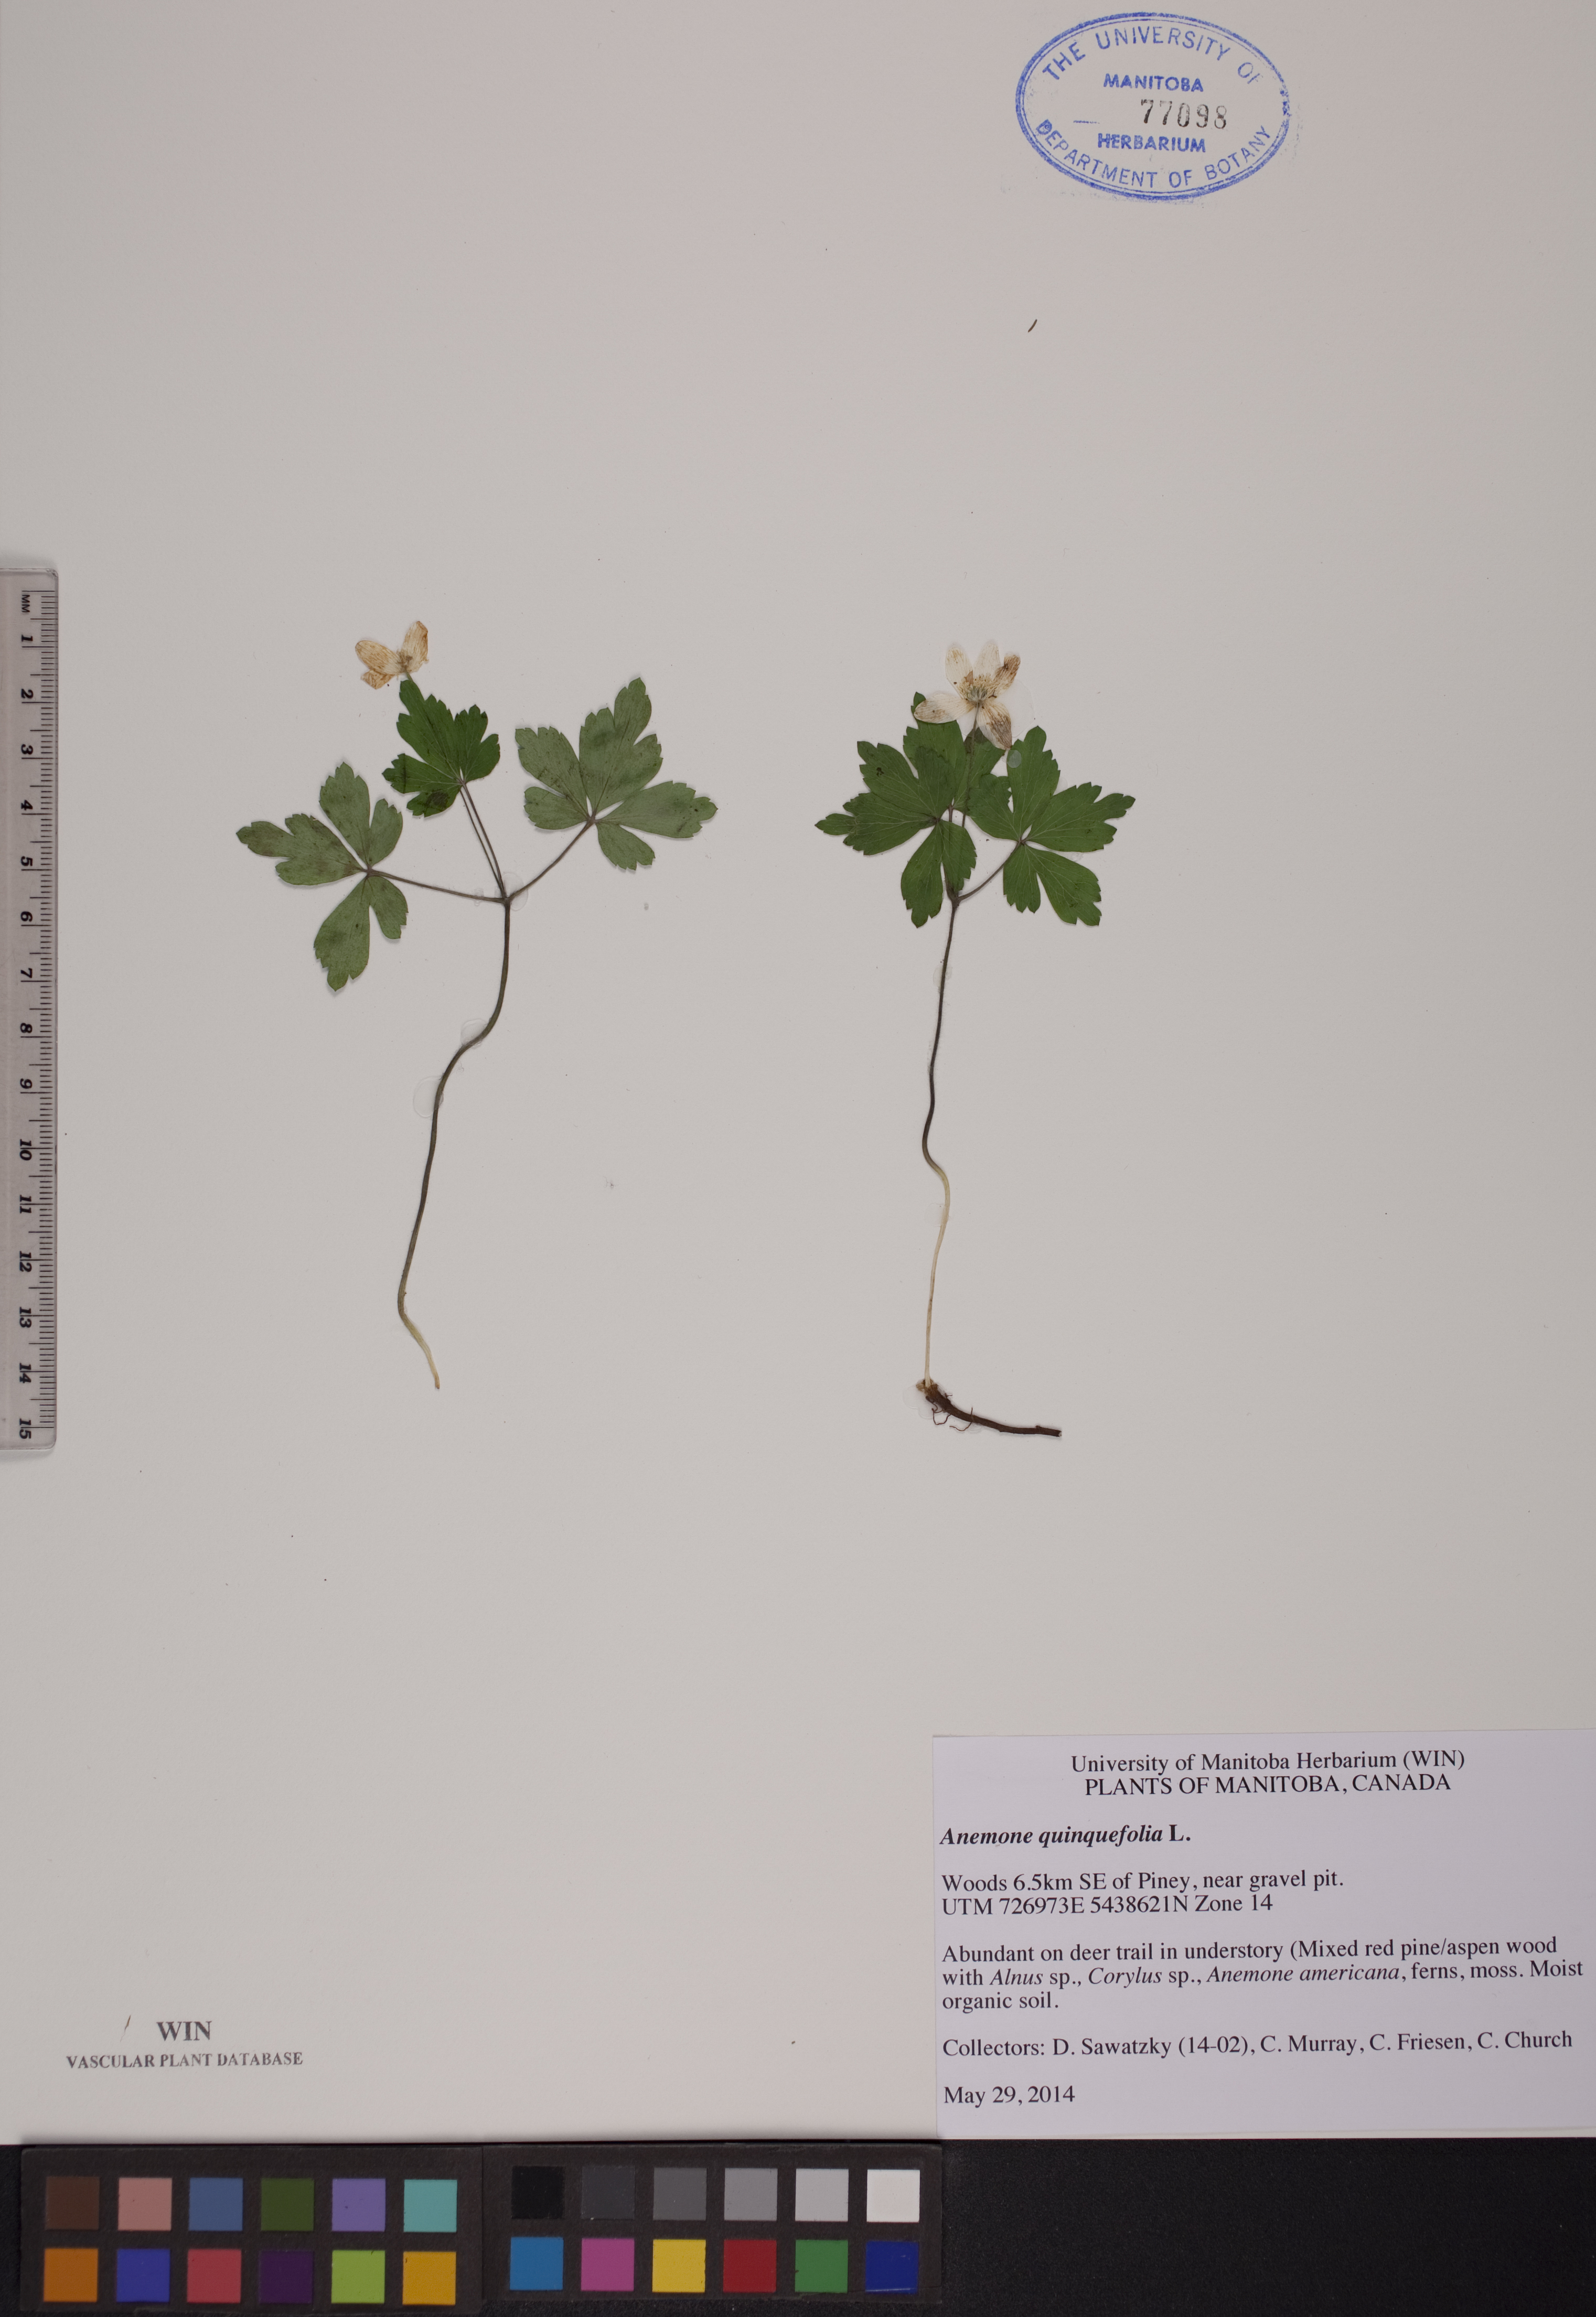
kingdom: Plantae
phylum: Tracheophyta
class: Magnoliopsida
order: Ranunculales
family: Ranunculaceae
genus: Anemone
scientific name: Anemone quinquefolia
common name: Wood anemone
